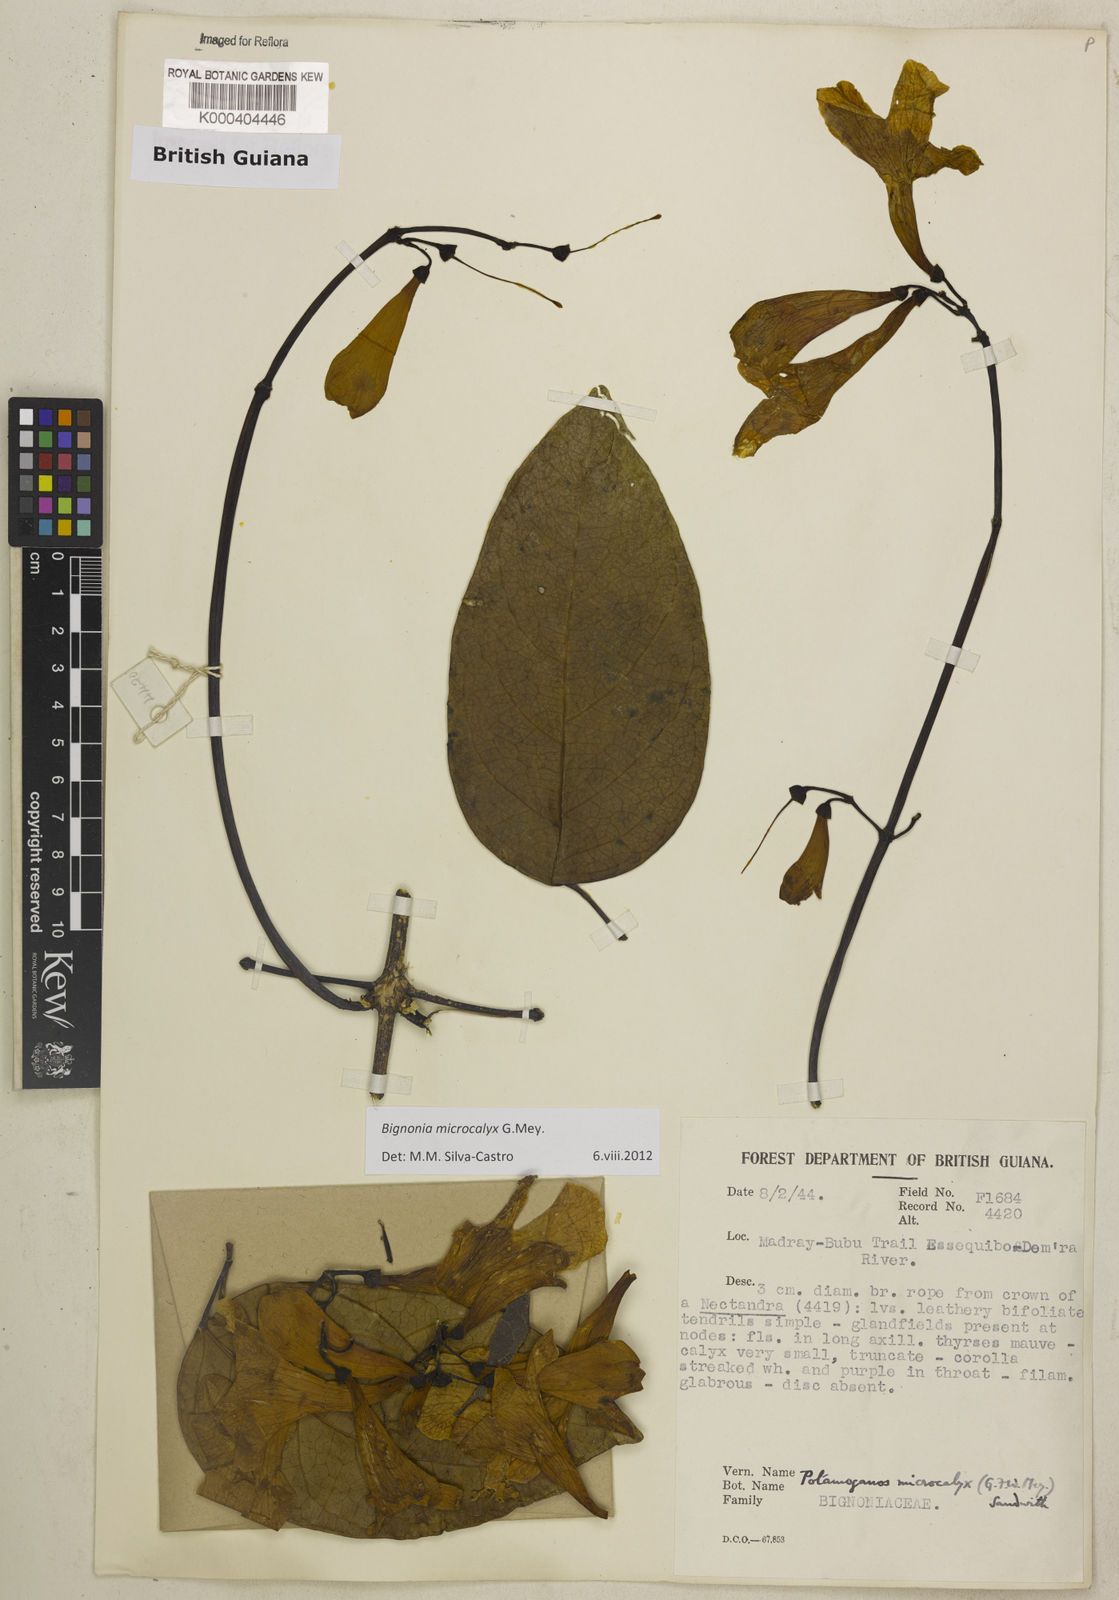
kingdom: Plantae
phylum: Tracheophyta
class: Magnoliopsida
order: Lamiales
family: Bignoniaceae
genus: Bignonia
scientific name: Bignonia microcalyx
